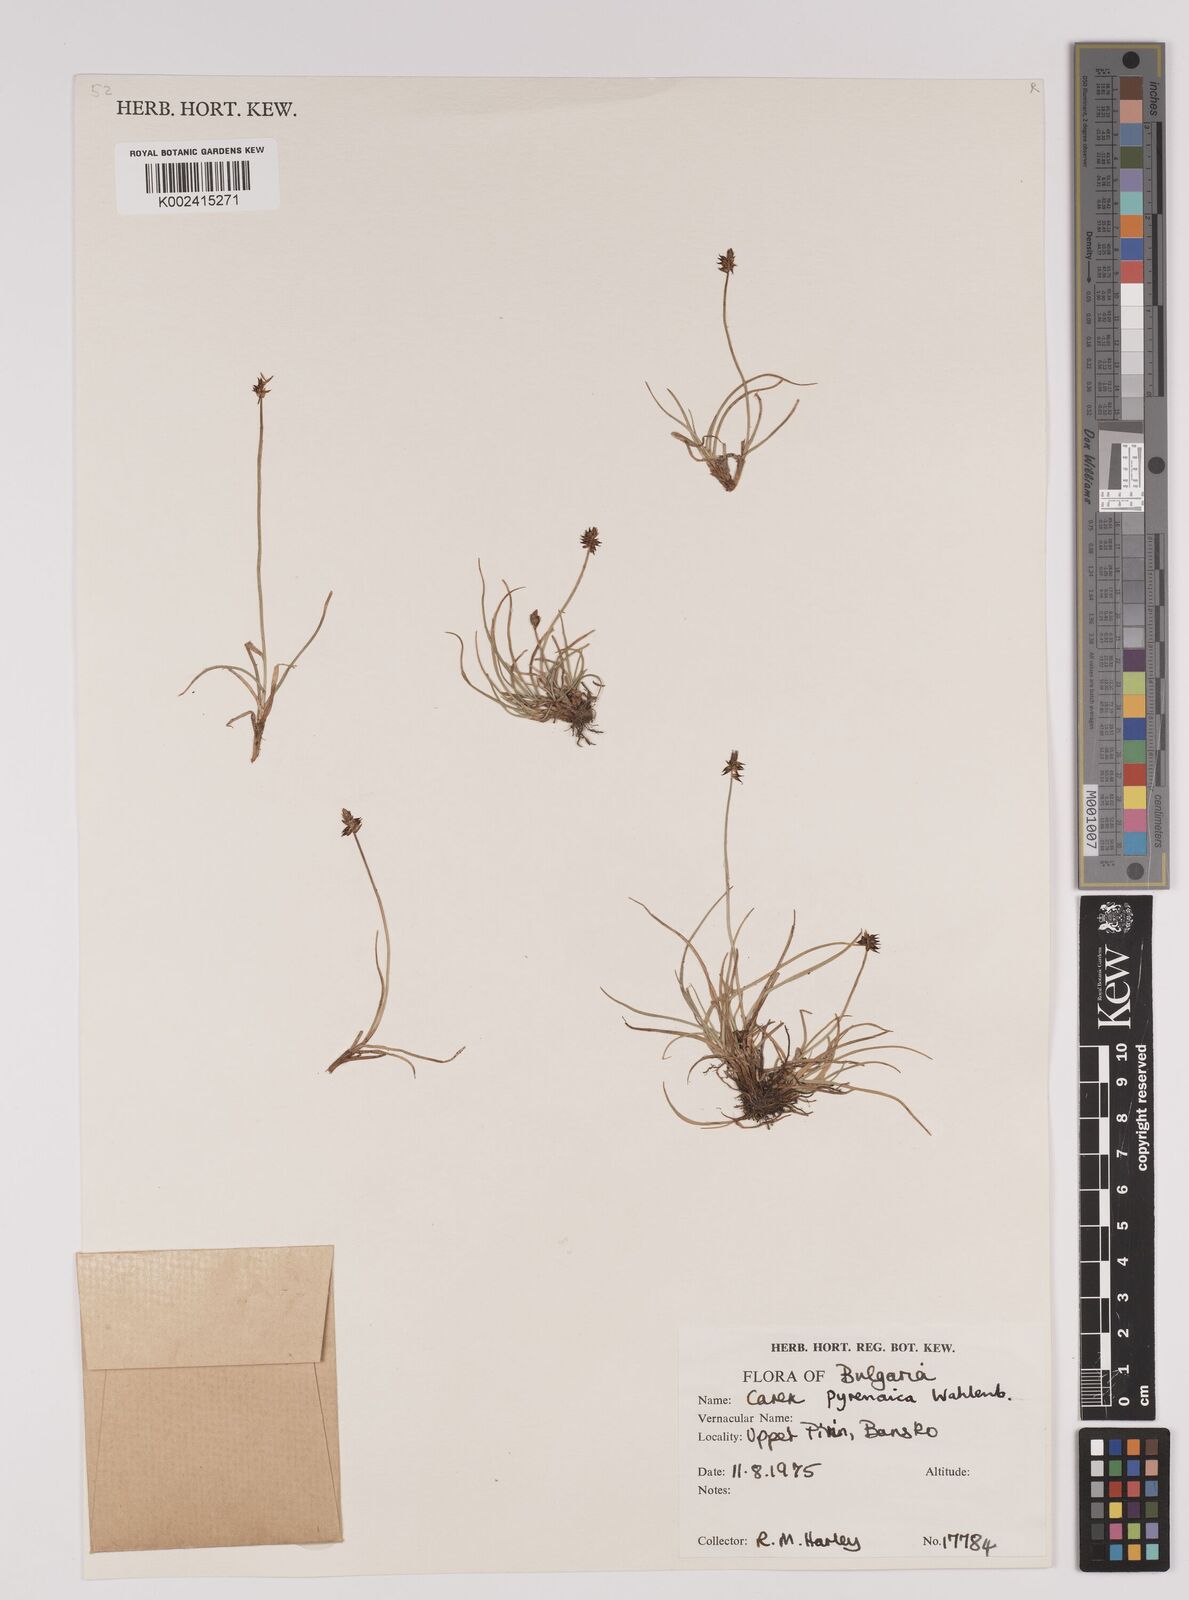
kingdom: Plantae
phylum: Tracheophyta
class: Liliopsida
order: Poales
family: Cyperaceae
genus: Carex
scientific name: Carex pyrenaica
